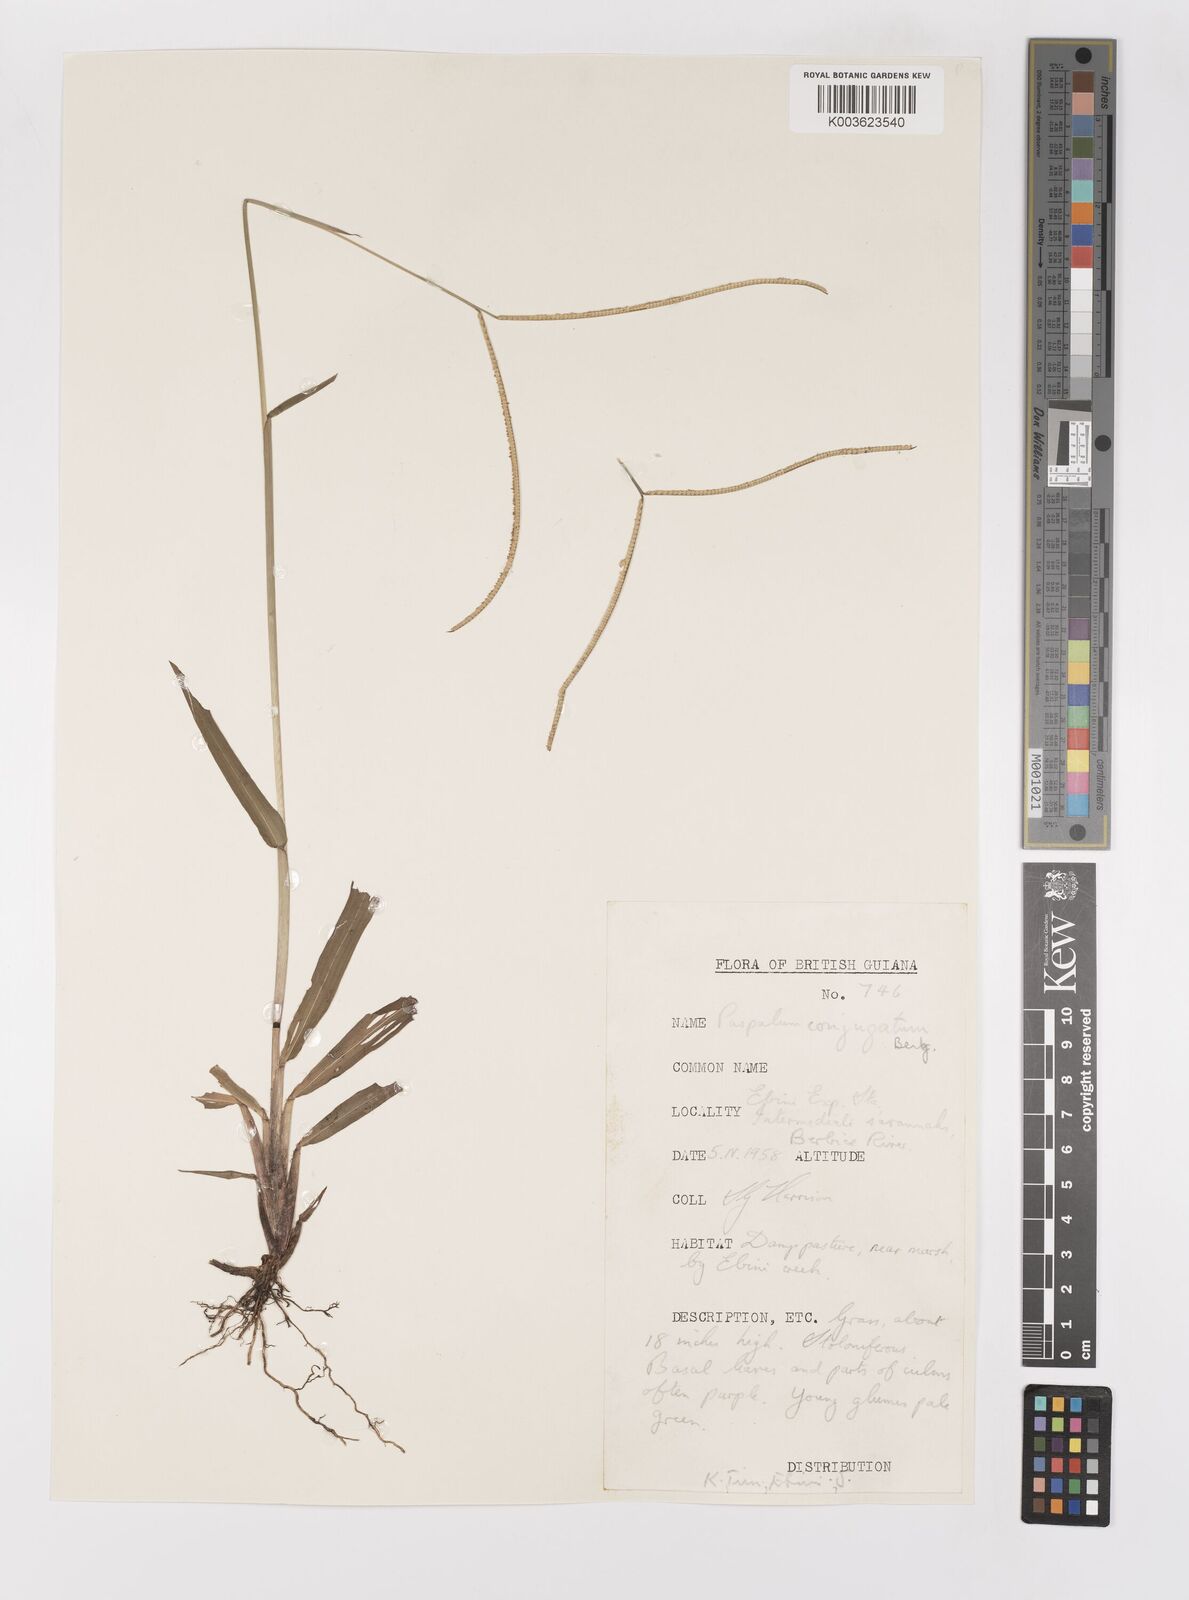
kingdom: Plantae
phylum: Tracheophyta
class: Liliopsida
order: Poales
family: Poaceae
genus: Paspalum
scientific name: Paspalum conjugatum
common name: Hilograss
